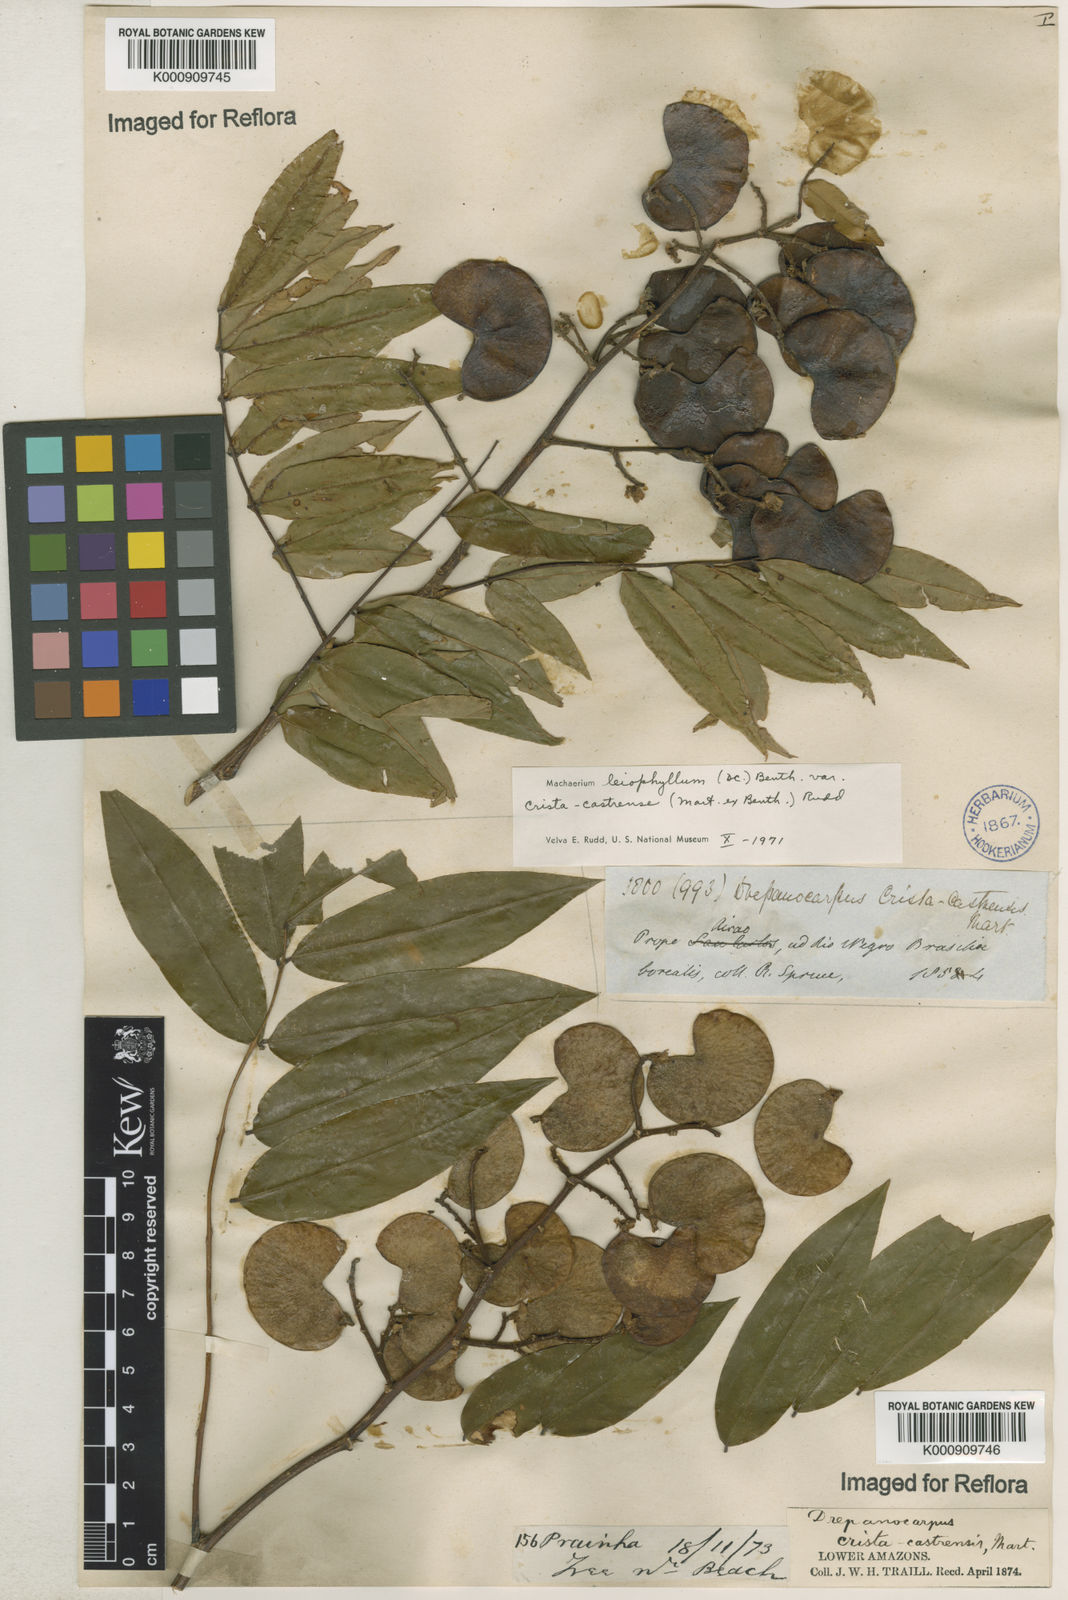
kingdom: Plantae
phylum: Tracheophyta
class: Magnoliopsida
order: Fabales
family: Fabaceae
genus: Machaerium
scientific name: Machaerium leiophyllum
